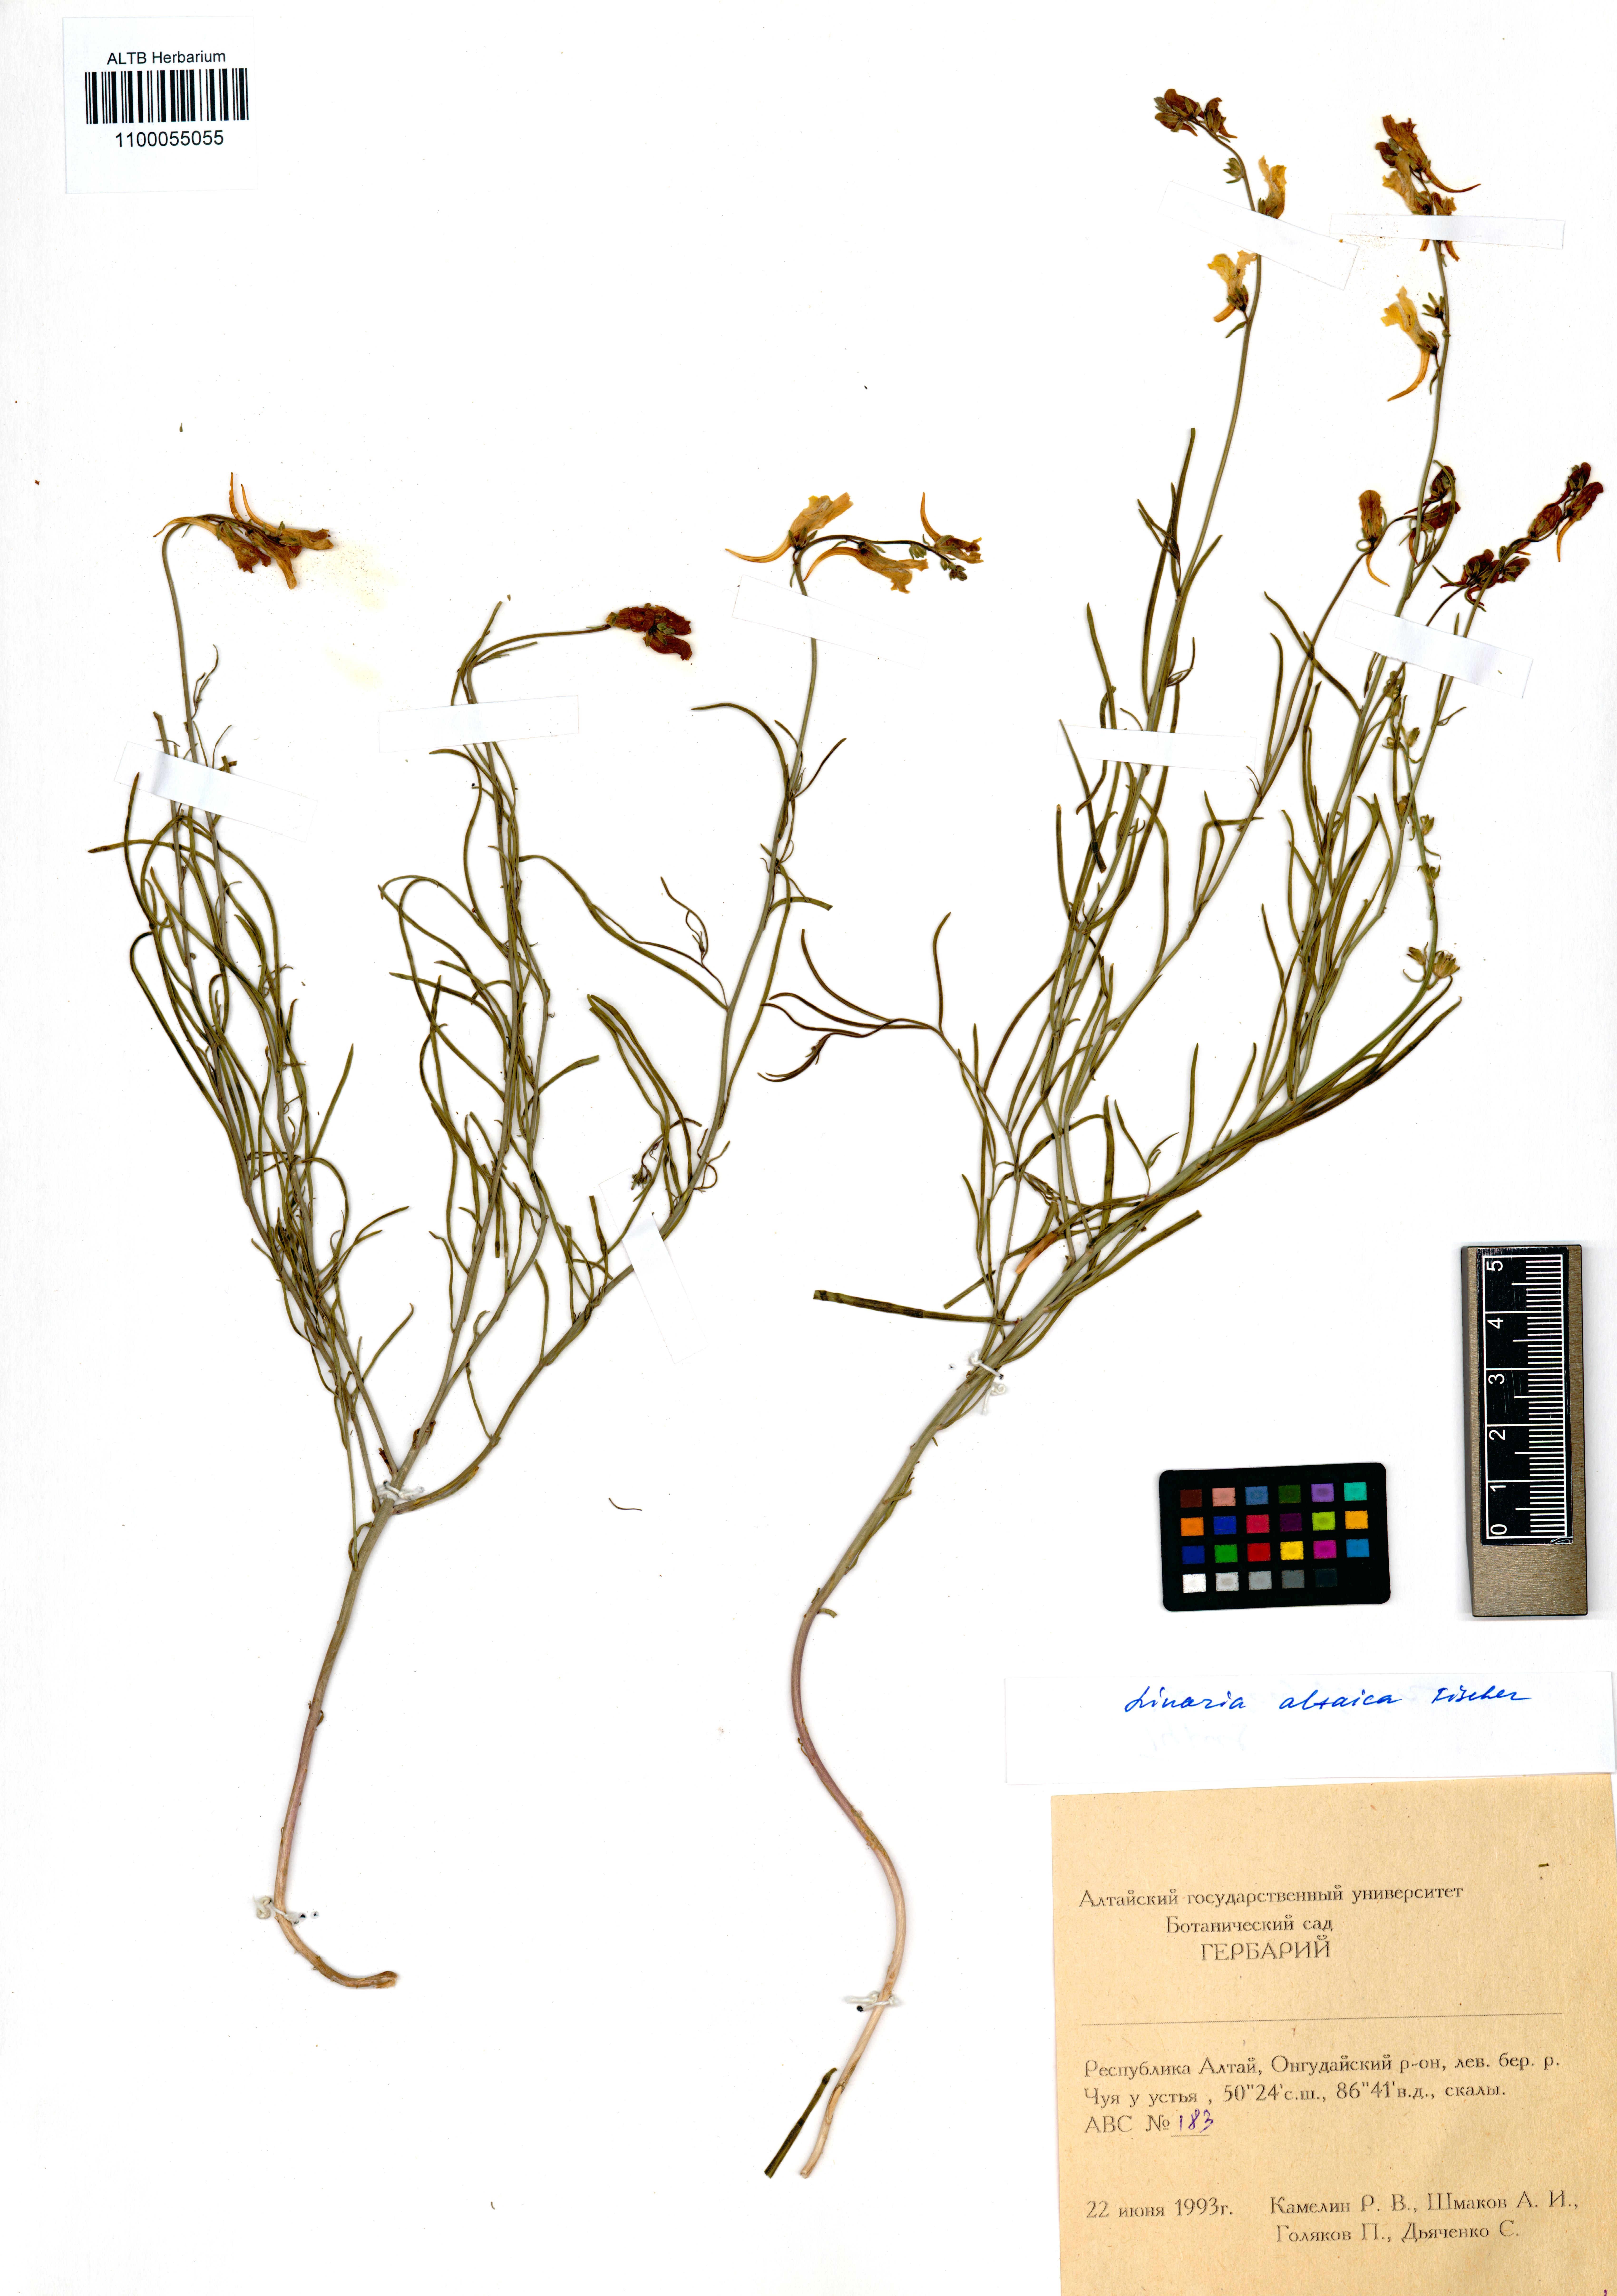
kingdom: Plantae
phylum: Tracheophyta
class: Magnoliopsida
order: Lamiales
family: Plantaginaceae
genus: Linaria
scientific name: Linaria altaica
